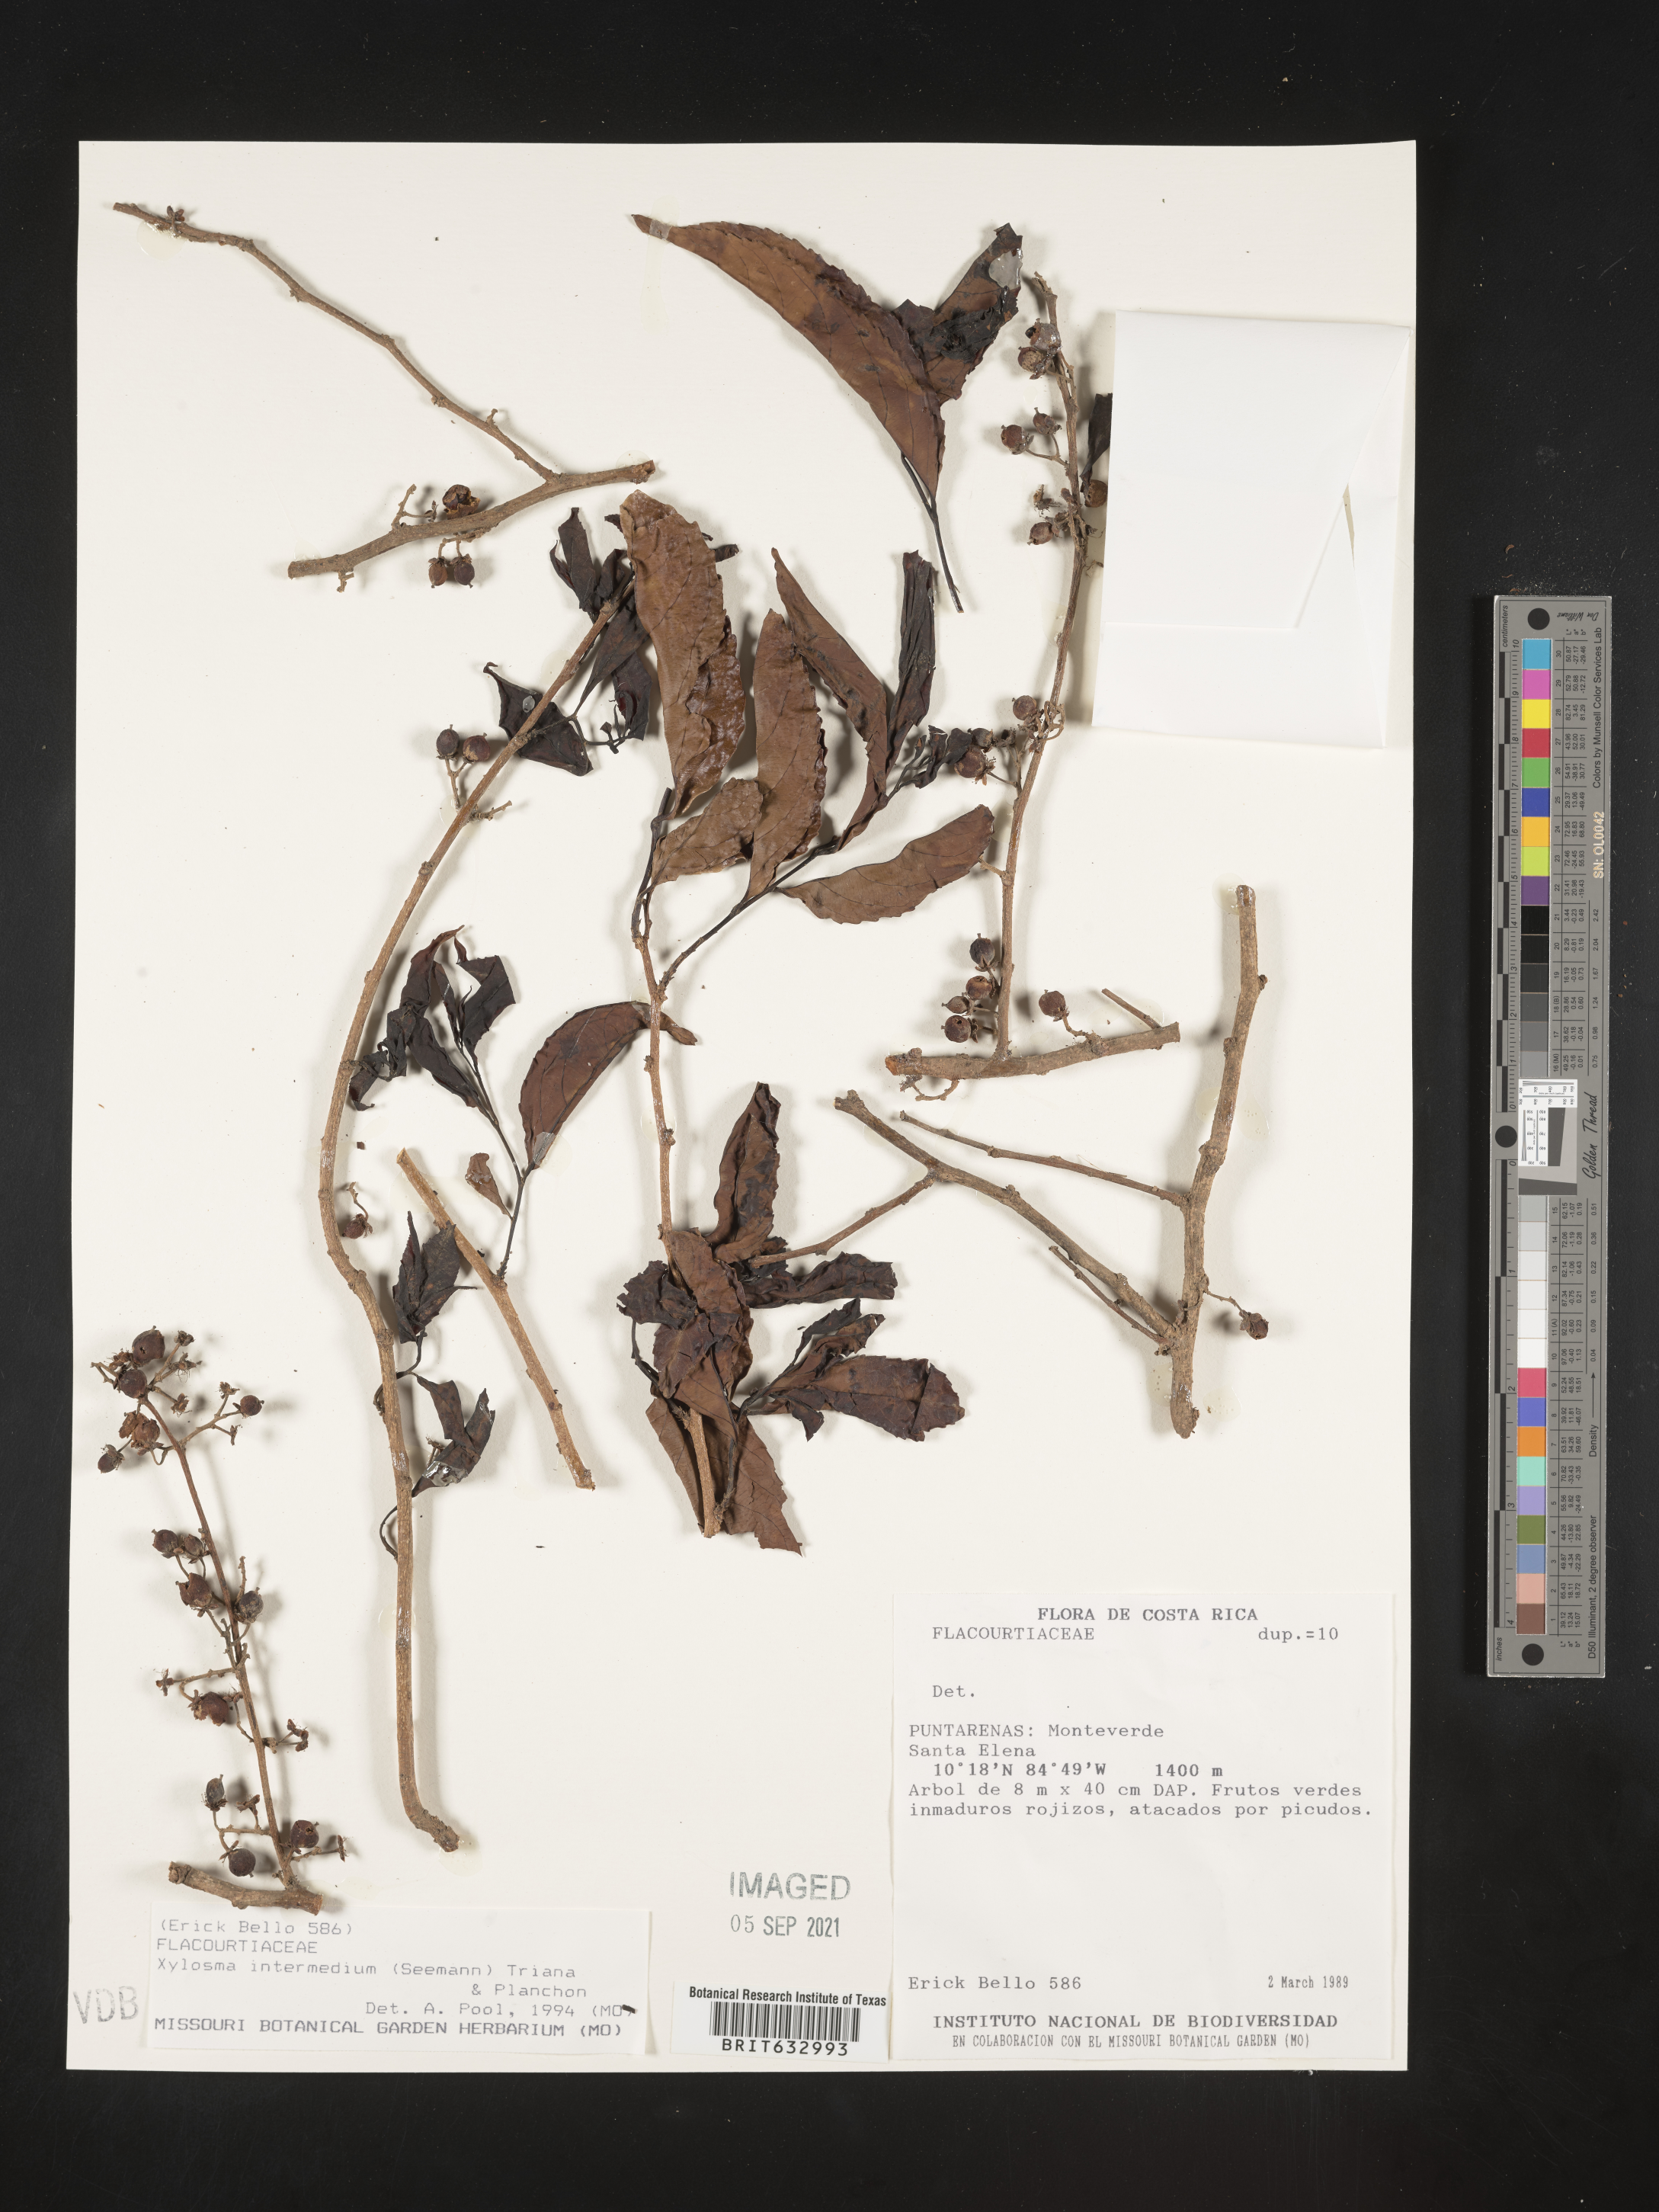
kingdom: Plantae
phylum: Tracheophyta
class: Magnoliopsida
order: Malpighiales
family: Salicaceae
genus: Xylosma
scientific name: Xylosma
